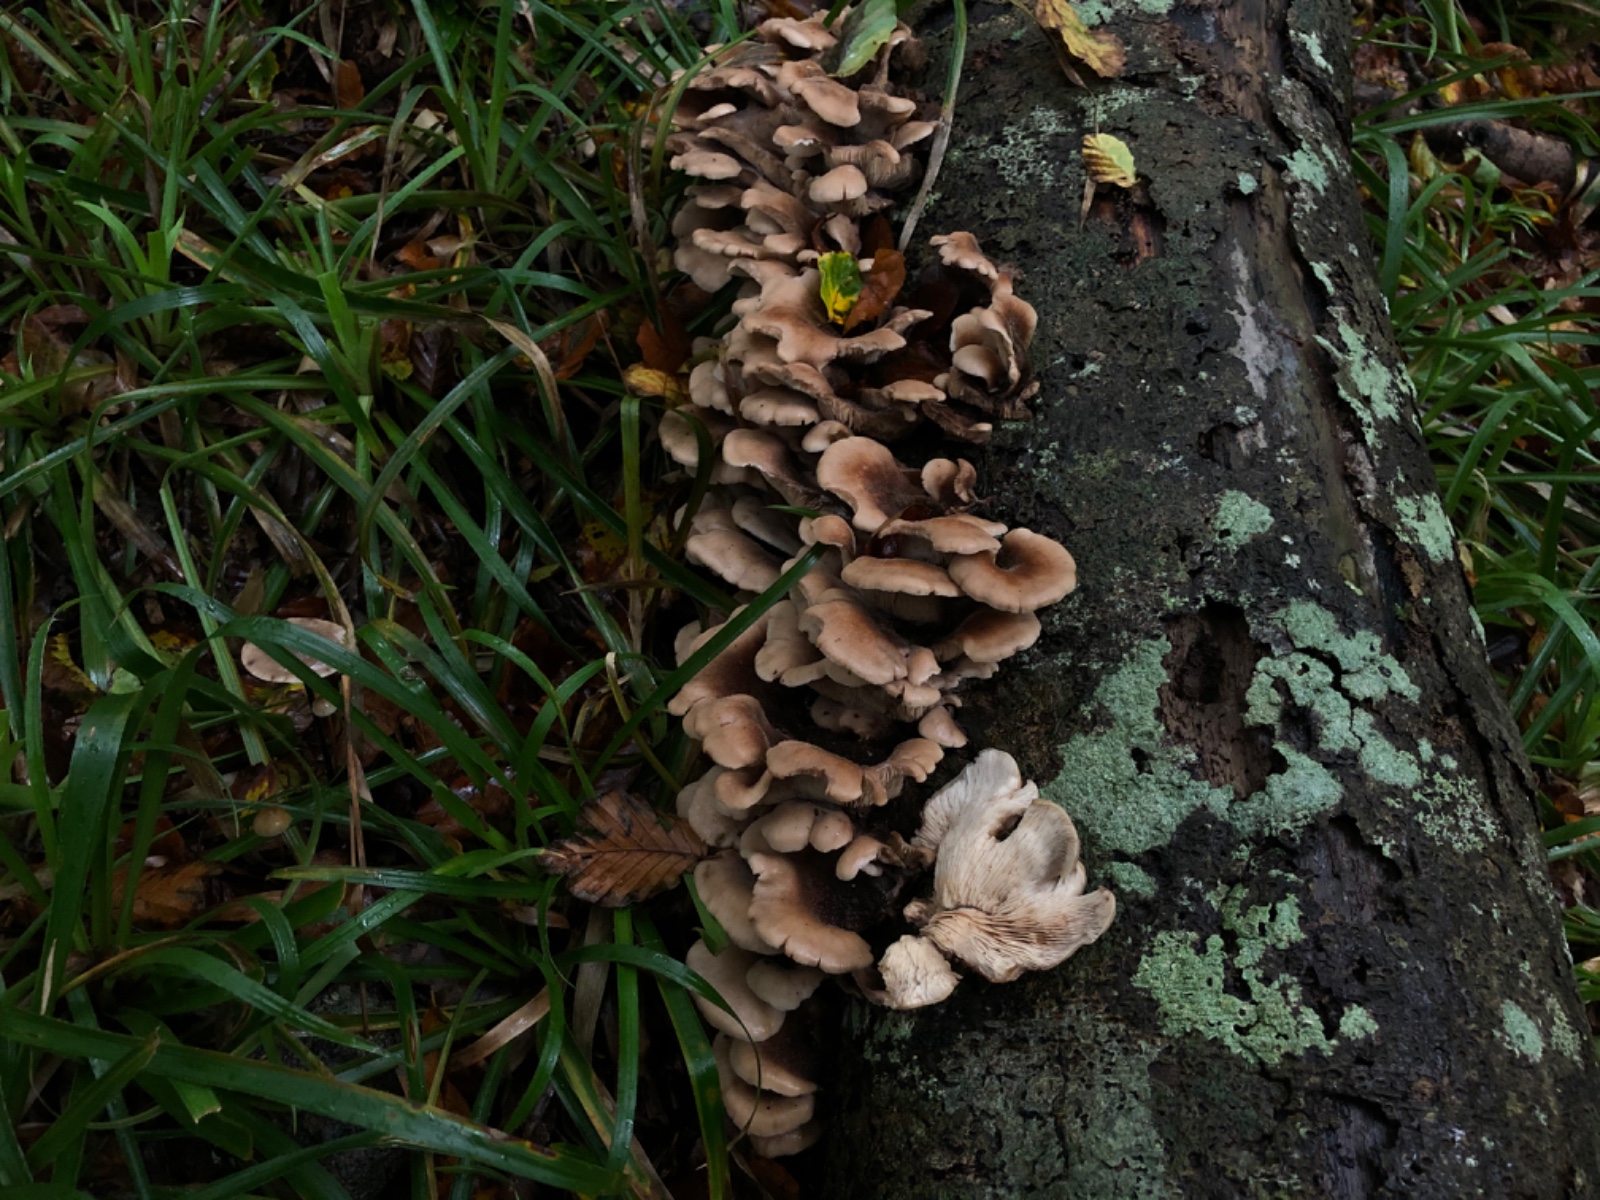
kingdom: Fungi
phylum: Basidiomycota
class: Agaricomycetes
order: Russulales
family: Auriscalpiaceae
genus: Lentinellus
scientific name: Lentinellus ursinus
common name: børstehåret savbladhat
